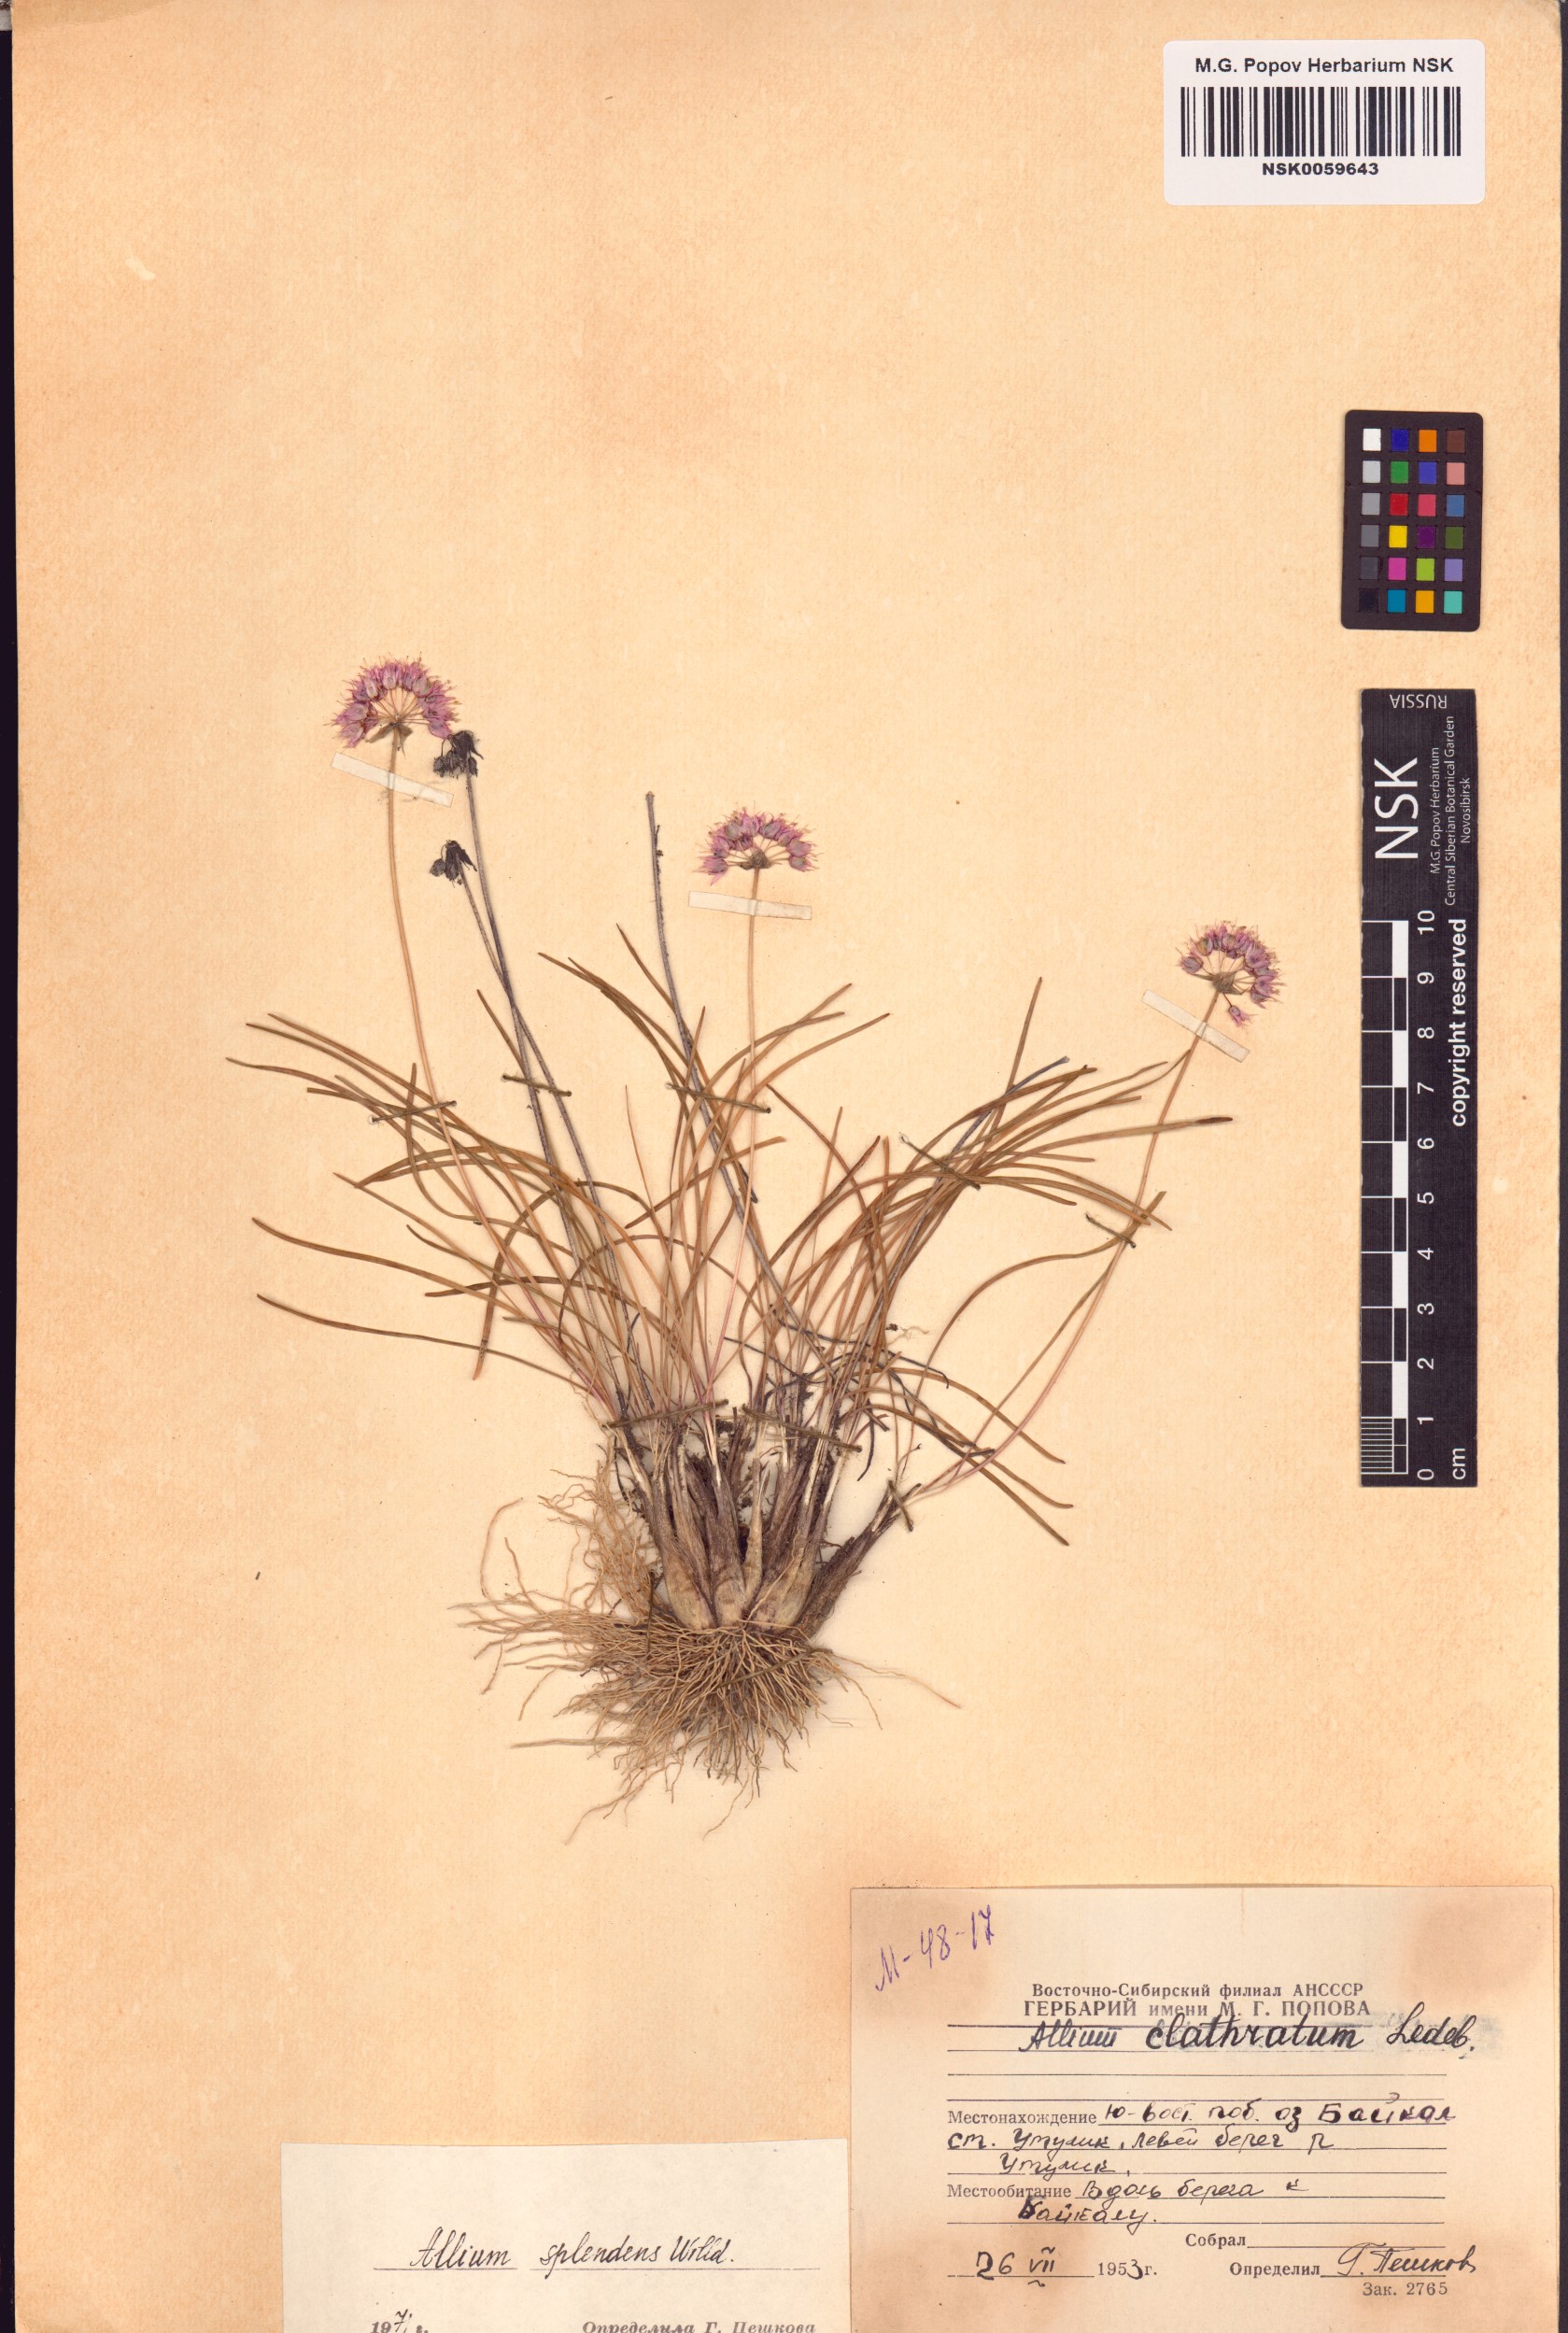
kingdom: Plantae
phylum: Tracheophyta
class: Liliopsida
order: Asparagales
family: Amaryllidaceae
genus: Allium
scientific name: Allium splendens
